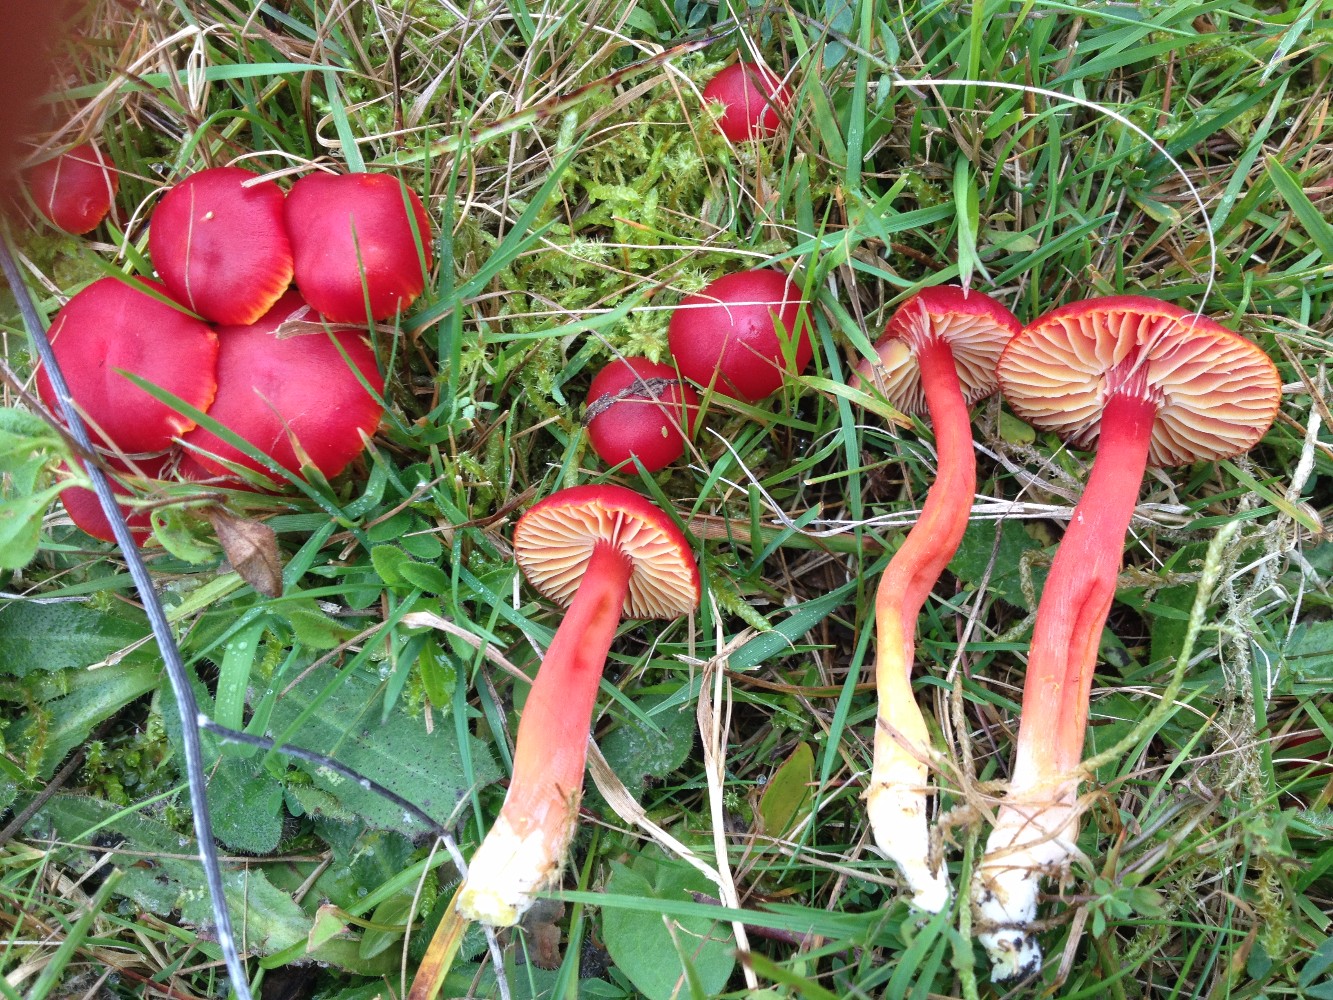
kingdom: Fungi
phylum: Basidiomycota
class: Agaricomycetes
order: Agaricales
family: Hygrophoraceae
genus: Hygrocybe
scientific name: Hygrocybe coccinea
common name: cinnober-vokshat
